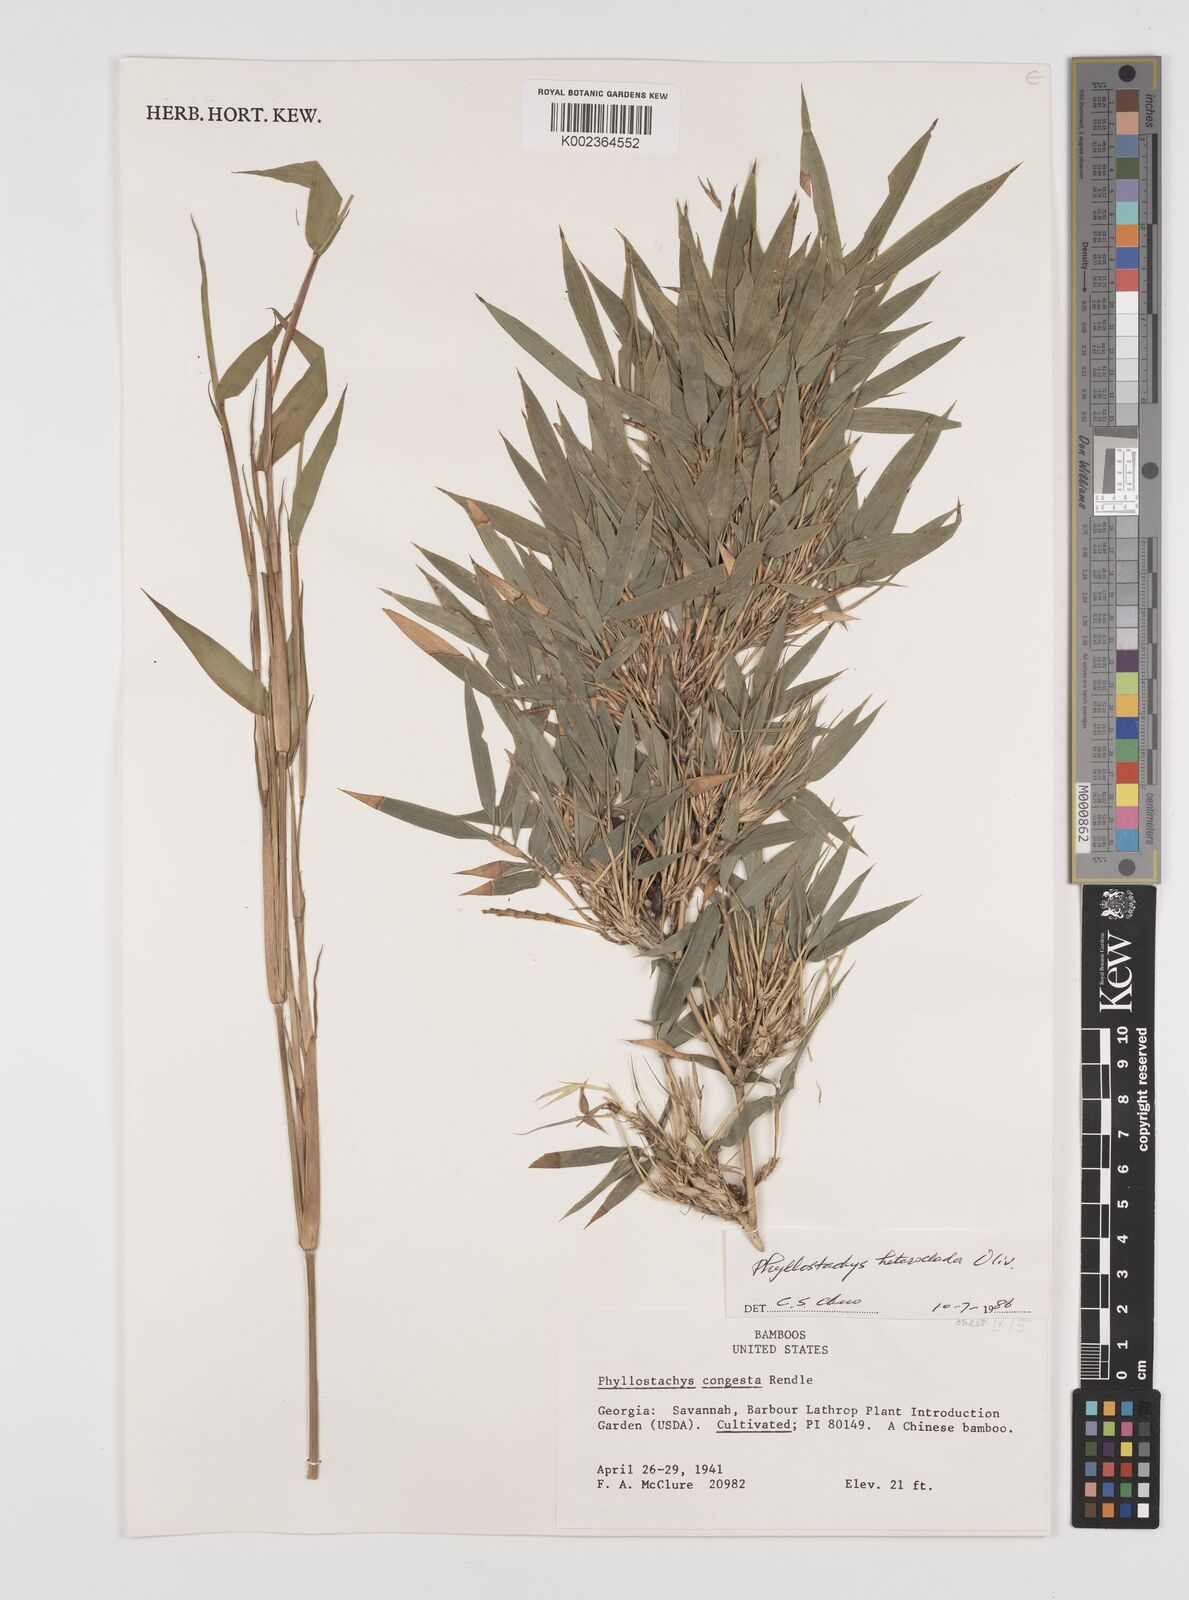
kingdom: Plantae
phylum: Tracheophyta
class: Liliopsida
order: Poales
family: Poaceae
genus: Phyllostachys
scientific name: Phyllostachys heteroclada
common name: Fishscale bamboo
